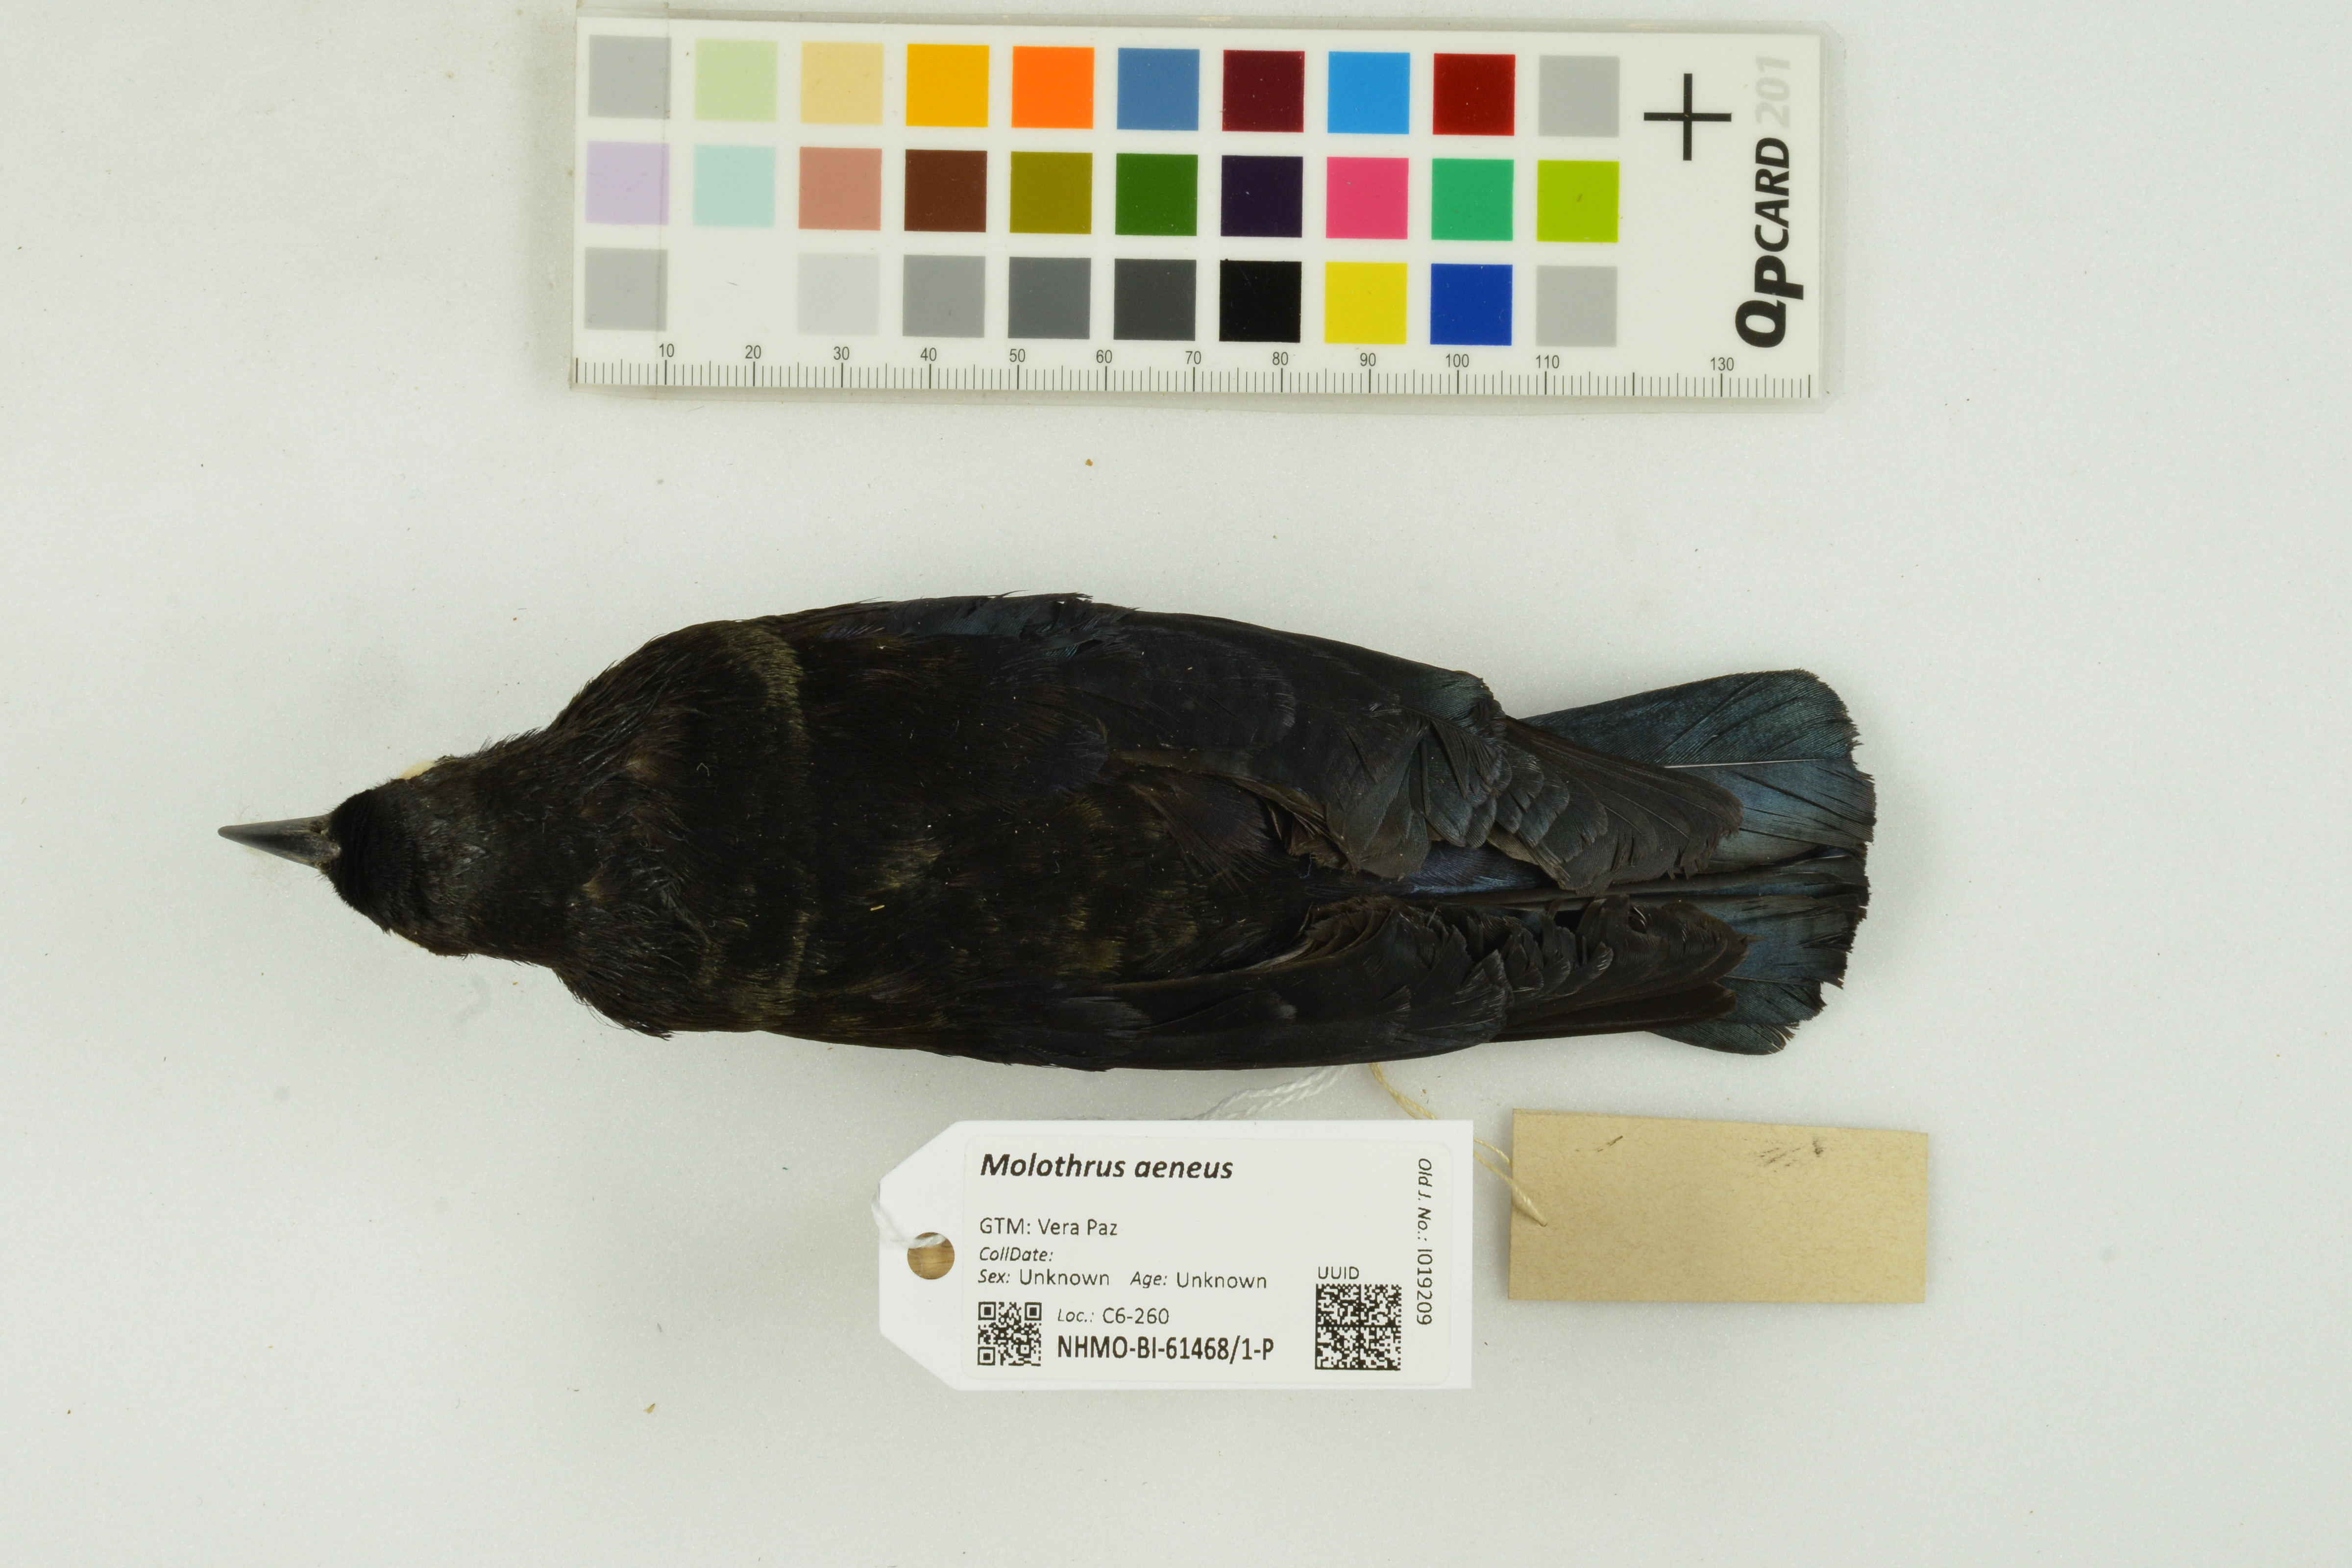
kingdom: Animalia
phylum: Chordata
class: Aves
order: Passeriformes
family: Icteridae
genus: Molothrus
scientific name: Molothrus aeneus
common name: Bronzed cowbird
